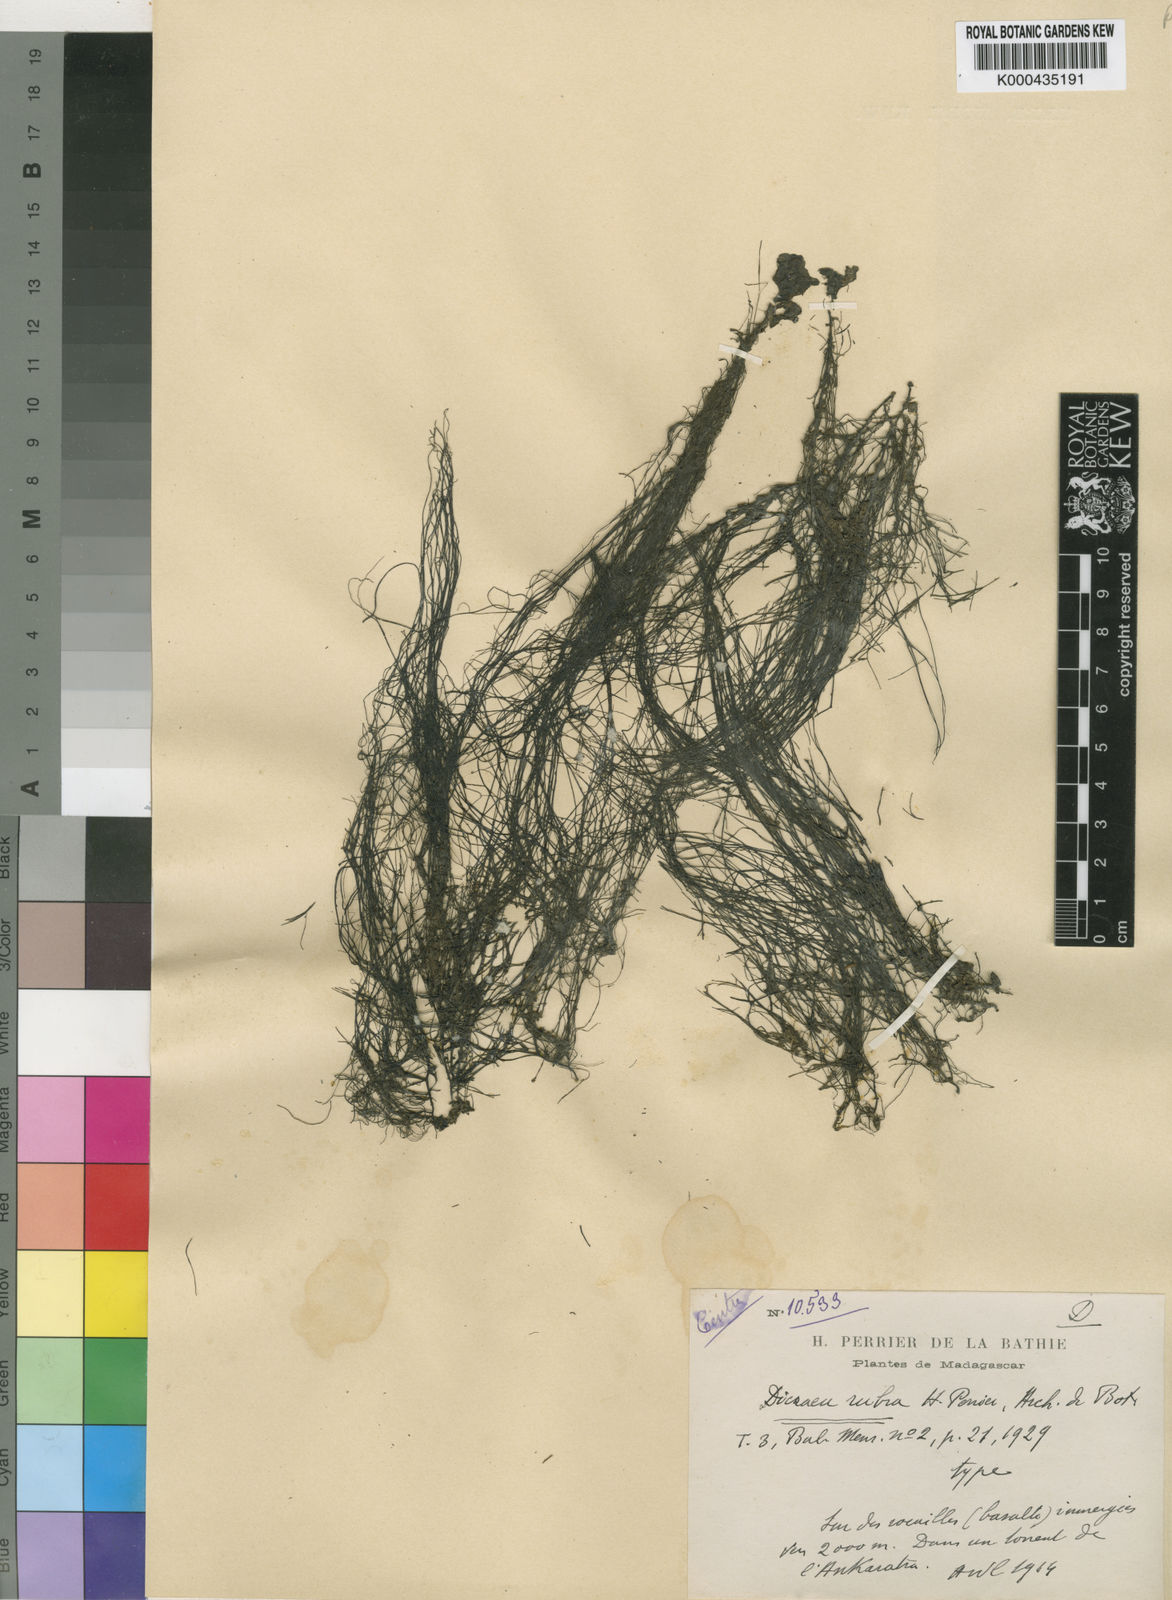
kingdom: Plantae
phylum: Tracheophyta
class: Magnoliopsida
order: Malpighiales
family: Podostemaceae
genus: Sphaerothylax
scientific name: Sphaerothylax abyssinica
